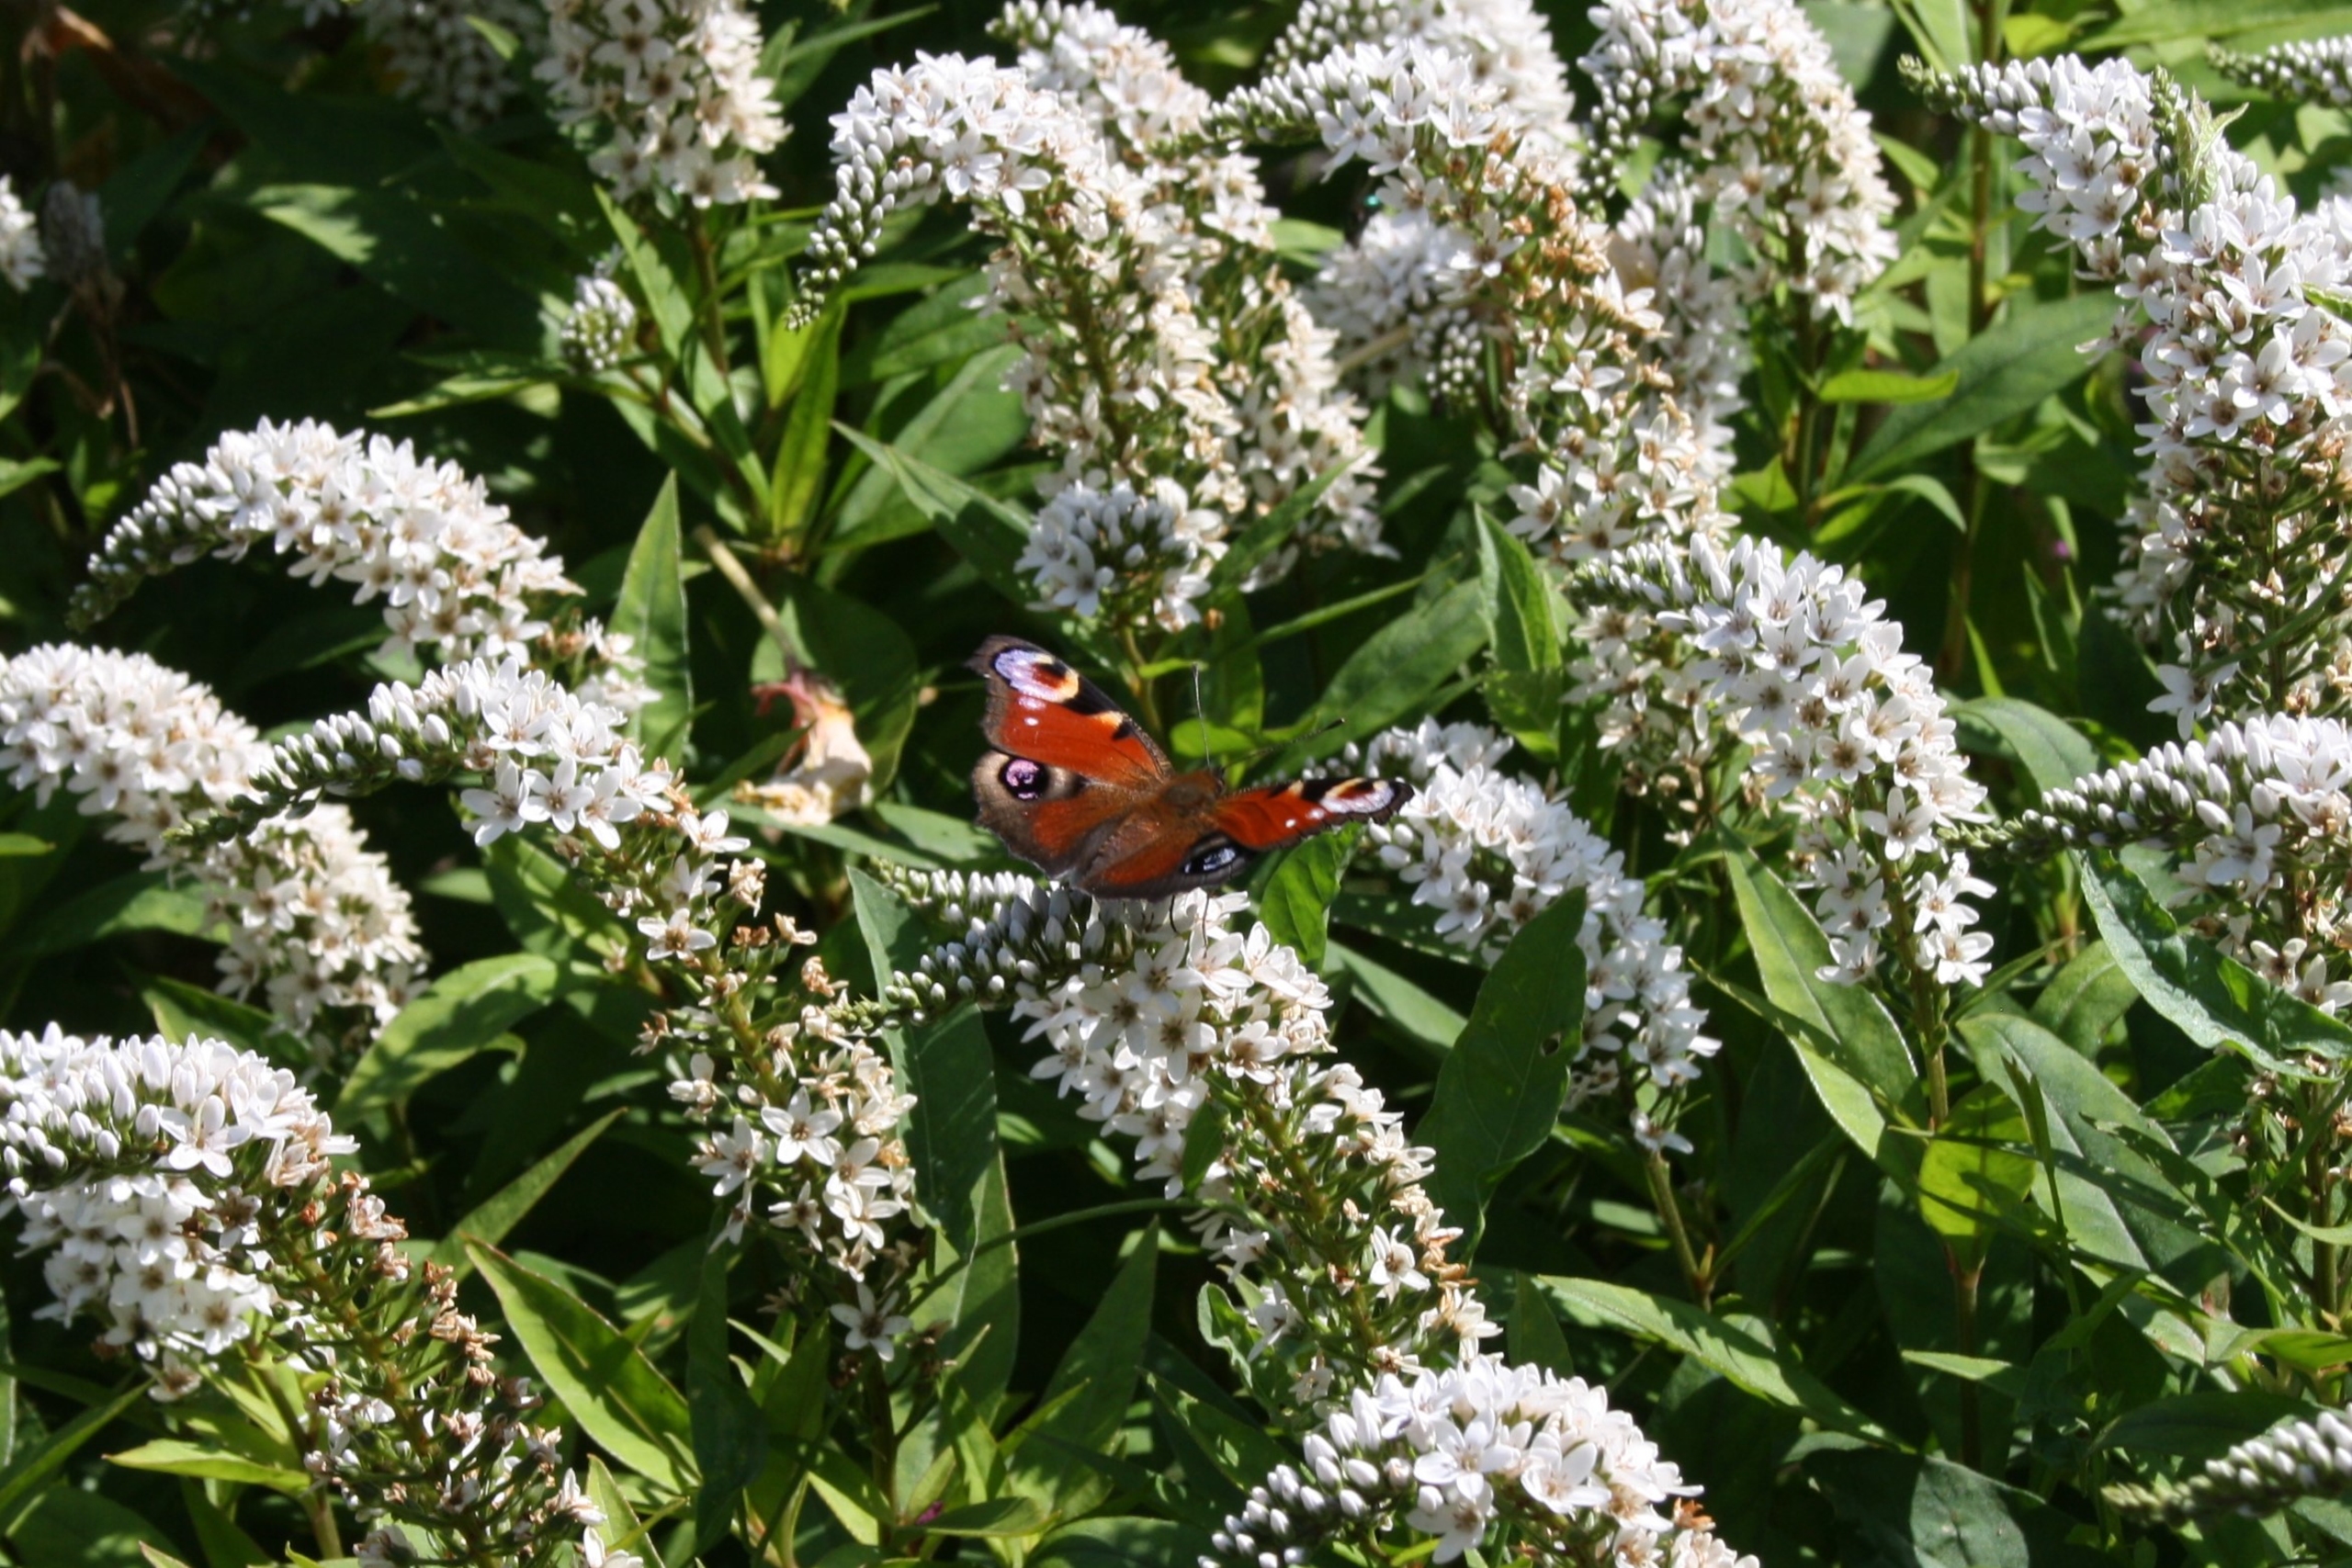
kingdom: Animalia
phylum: Arthropoda
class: Insecta
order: Lepidoptera
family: Nymphalidae
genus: Aglais
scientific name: Aglais io
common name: Dagpåfugleøje
